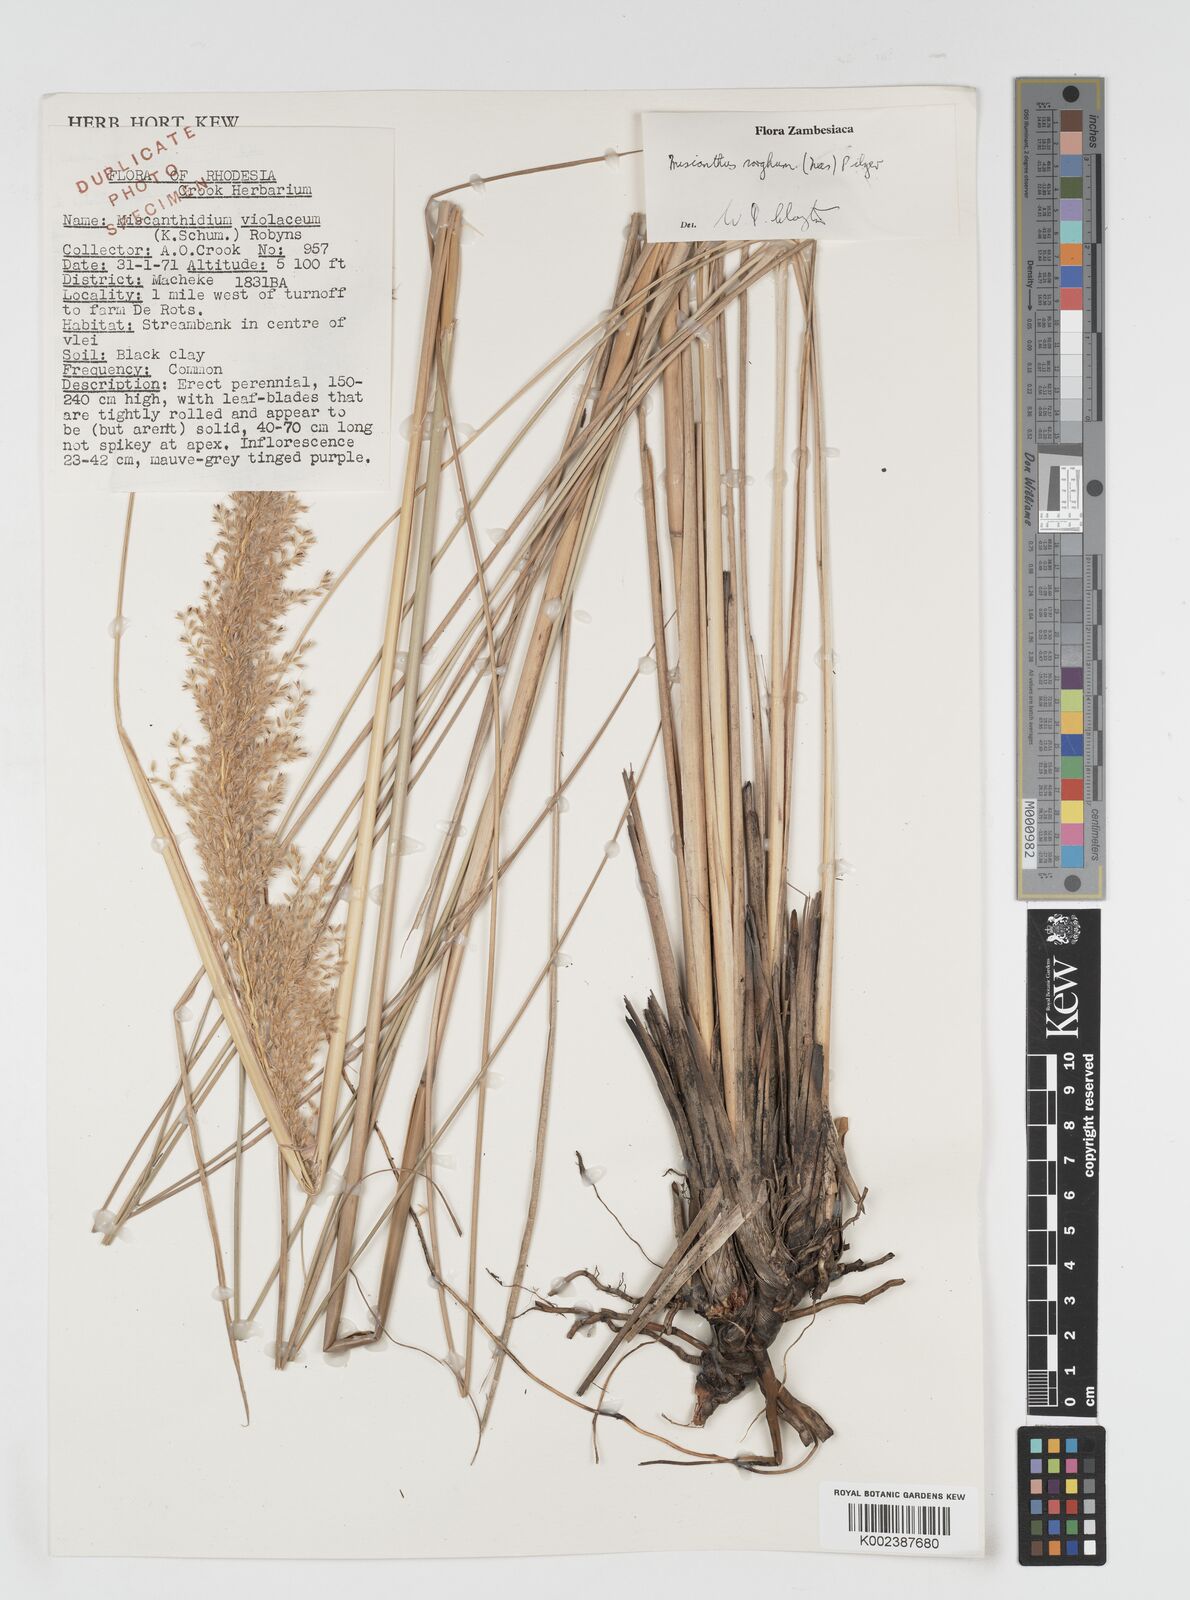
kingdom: Plantae
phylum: Tracheophyta
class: Liliopsida
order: Poales
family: Poaceae
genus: Miscanthus
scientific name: Miscanthus ecklonii
